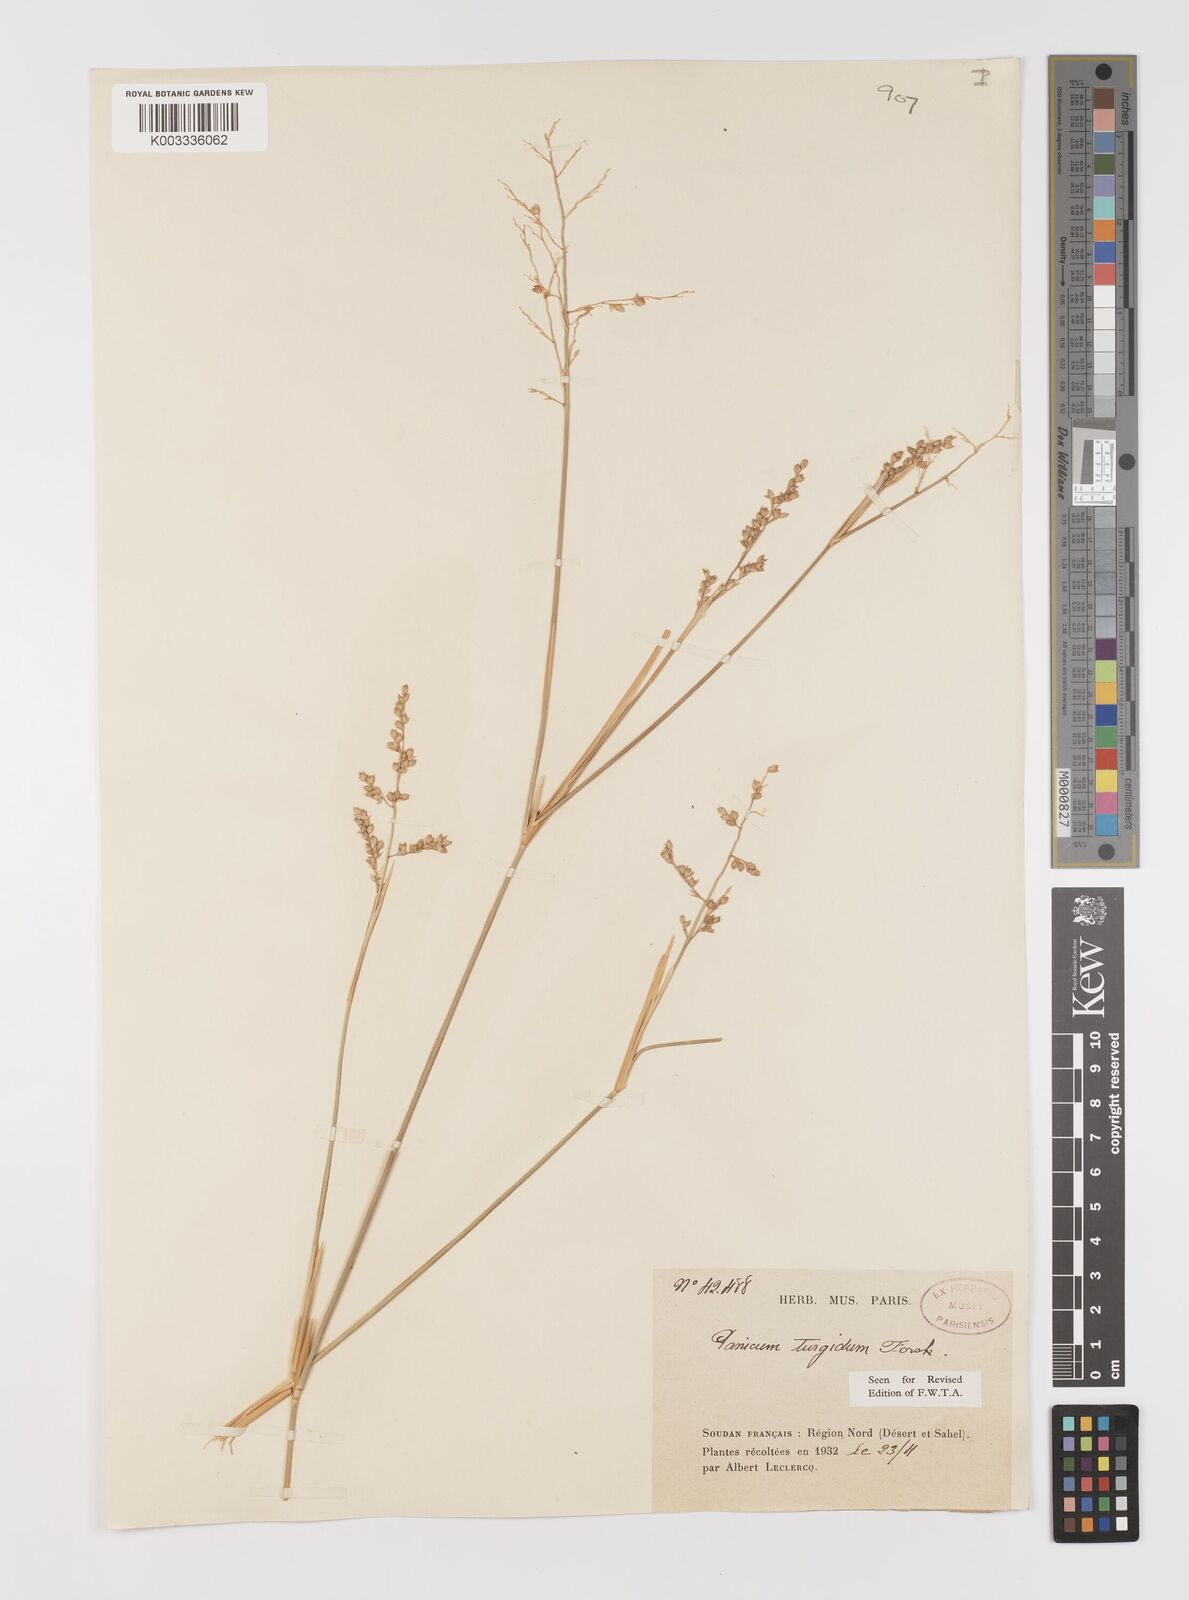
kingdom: Plantae
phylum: Tracheophyta
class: Liliopsida
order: Poales
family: Poaceae
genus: Panicum
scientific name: Panicum turgidum
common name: Desert grass
